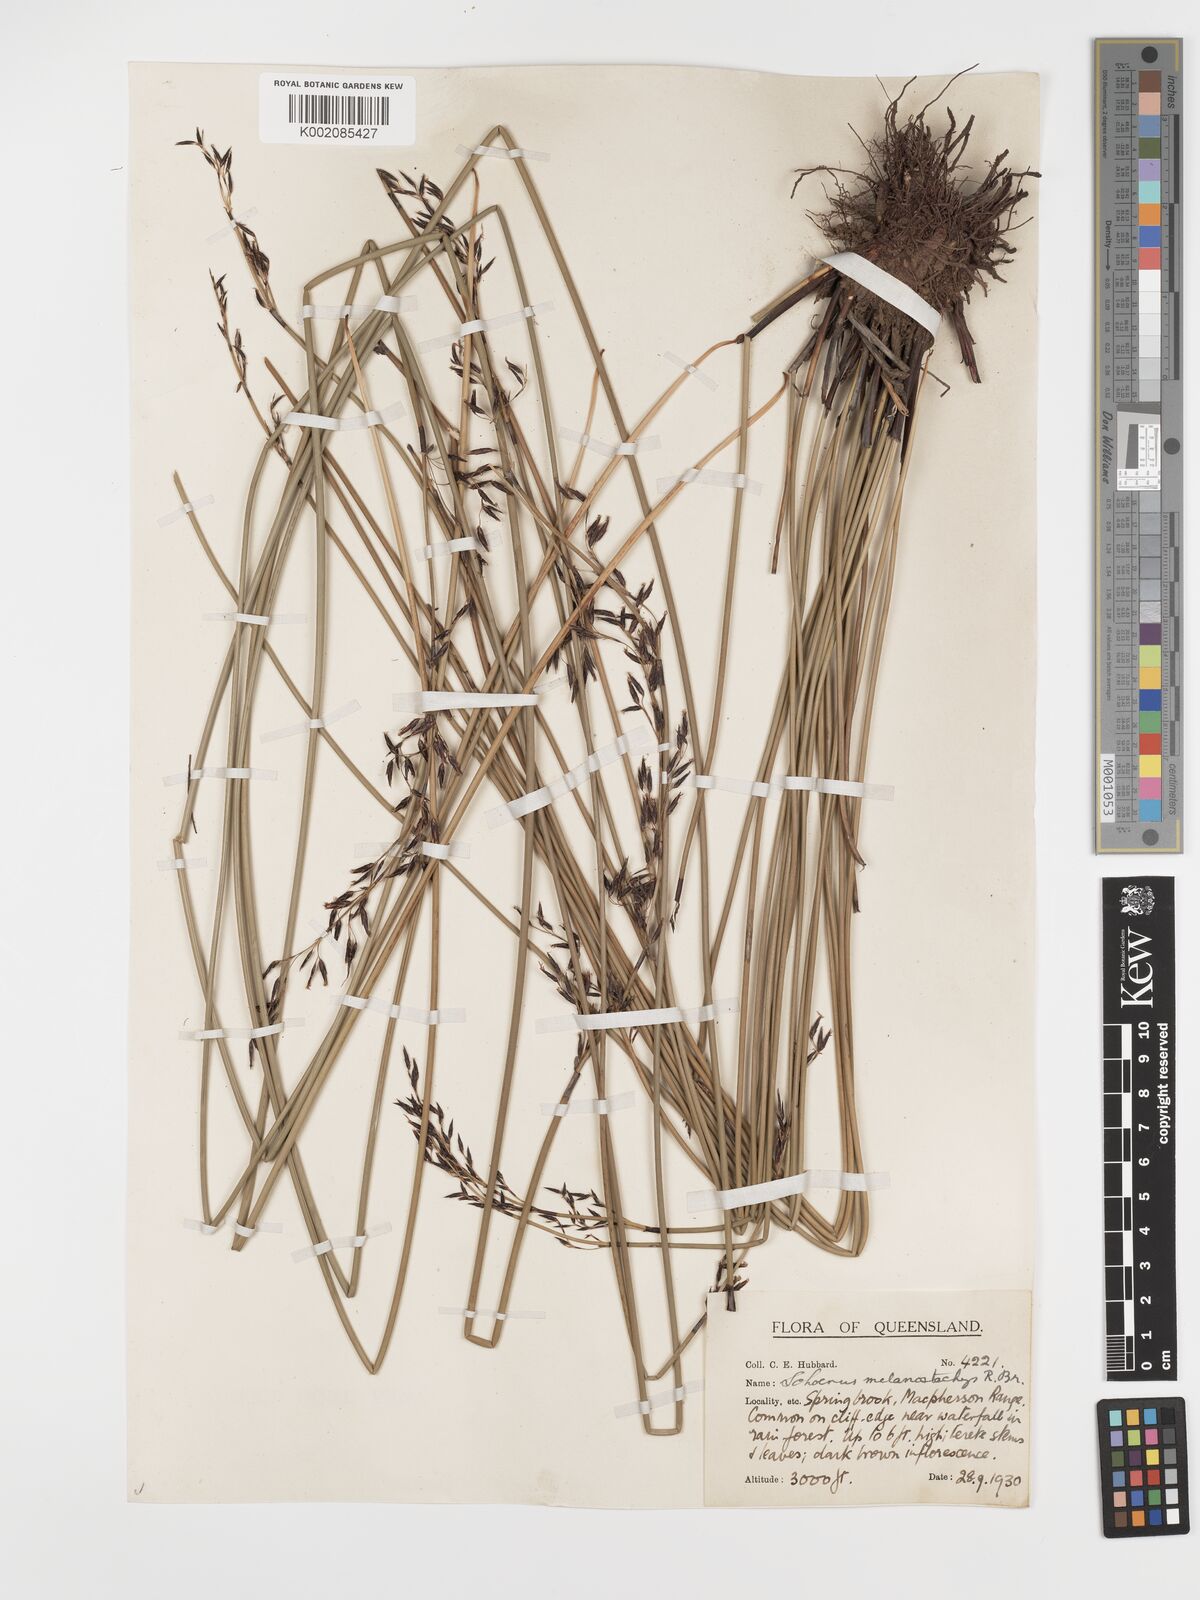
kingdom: Plantae
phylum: Tracheophyta
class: Liliopsida
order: Poales
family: Cyperaceae
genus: Schoenus
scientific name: Schoenus melanostachys
